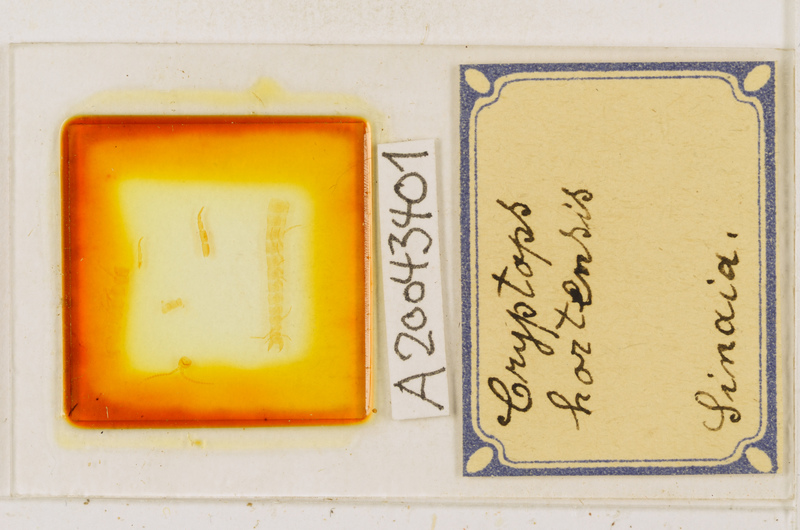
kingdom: Animalia
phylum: Arthropoda
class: Chilopoda
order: Scolopendromorpha
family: Cryptopidae
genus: Cryptops
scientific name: Cryptops hortensis
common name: Centipede
